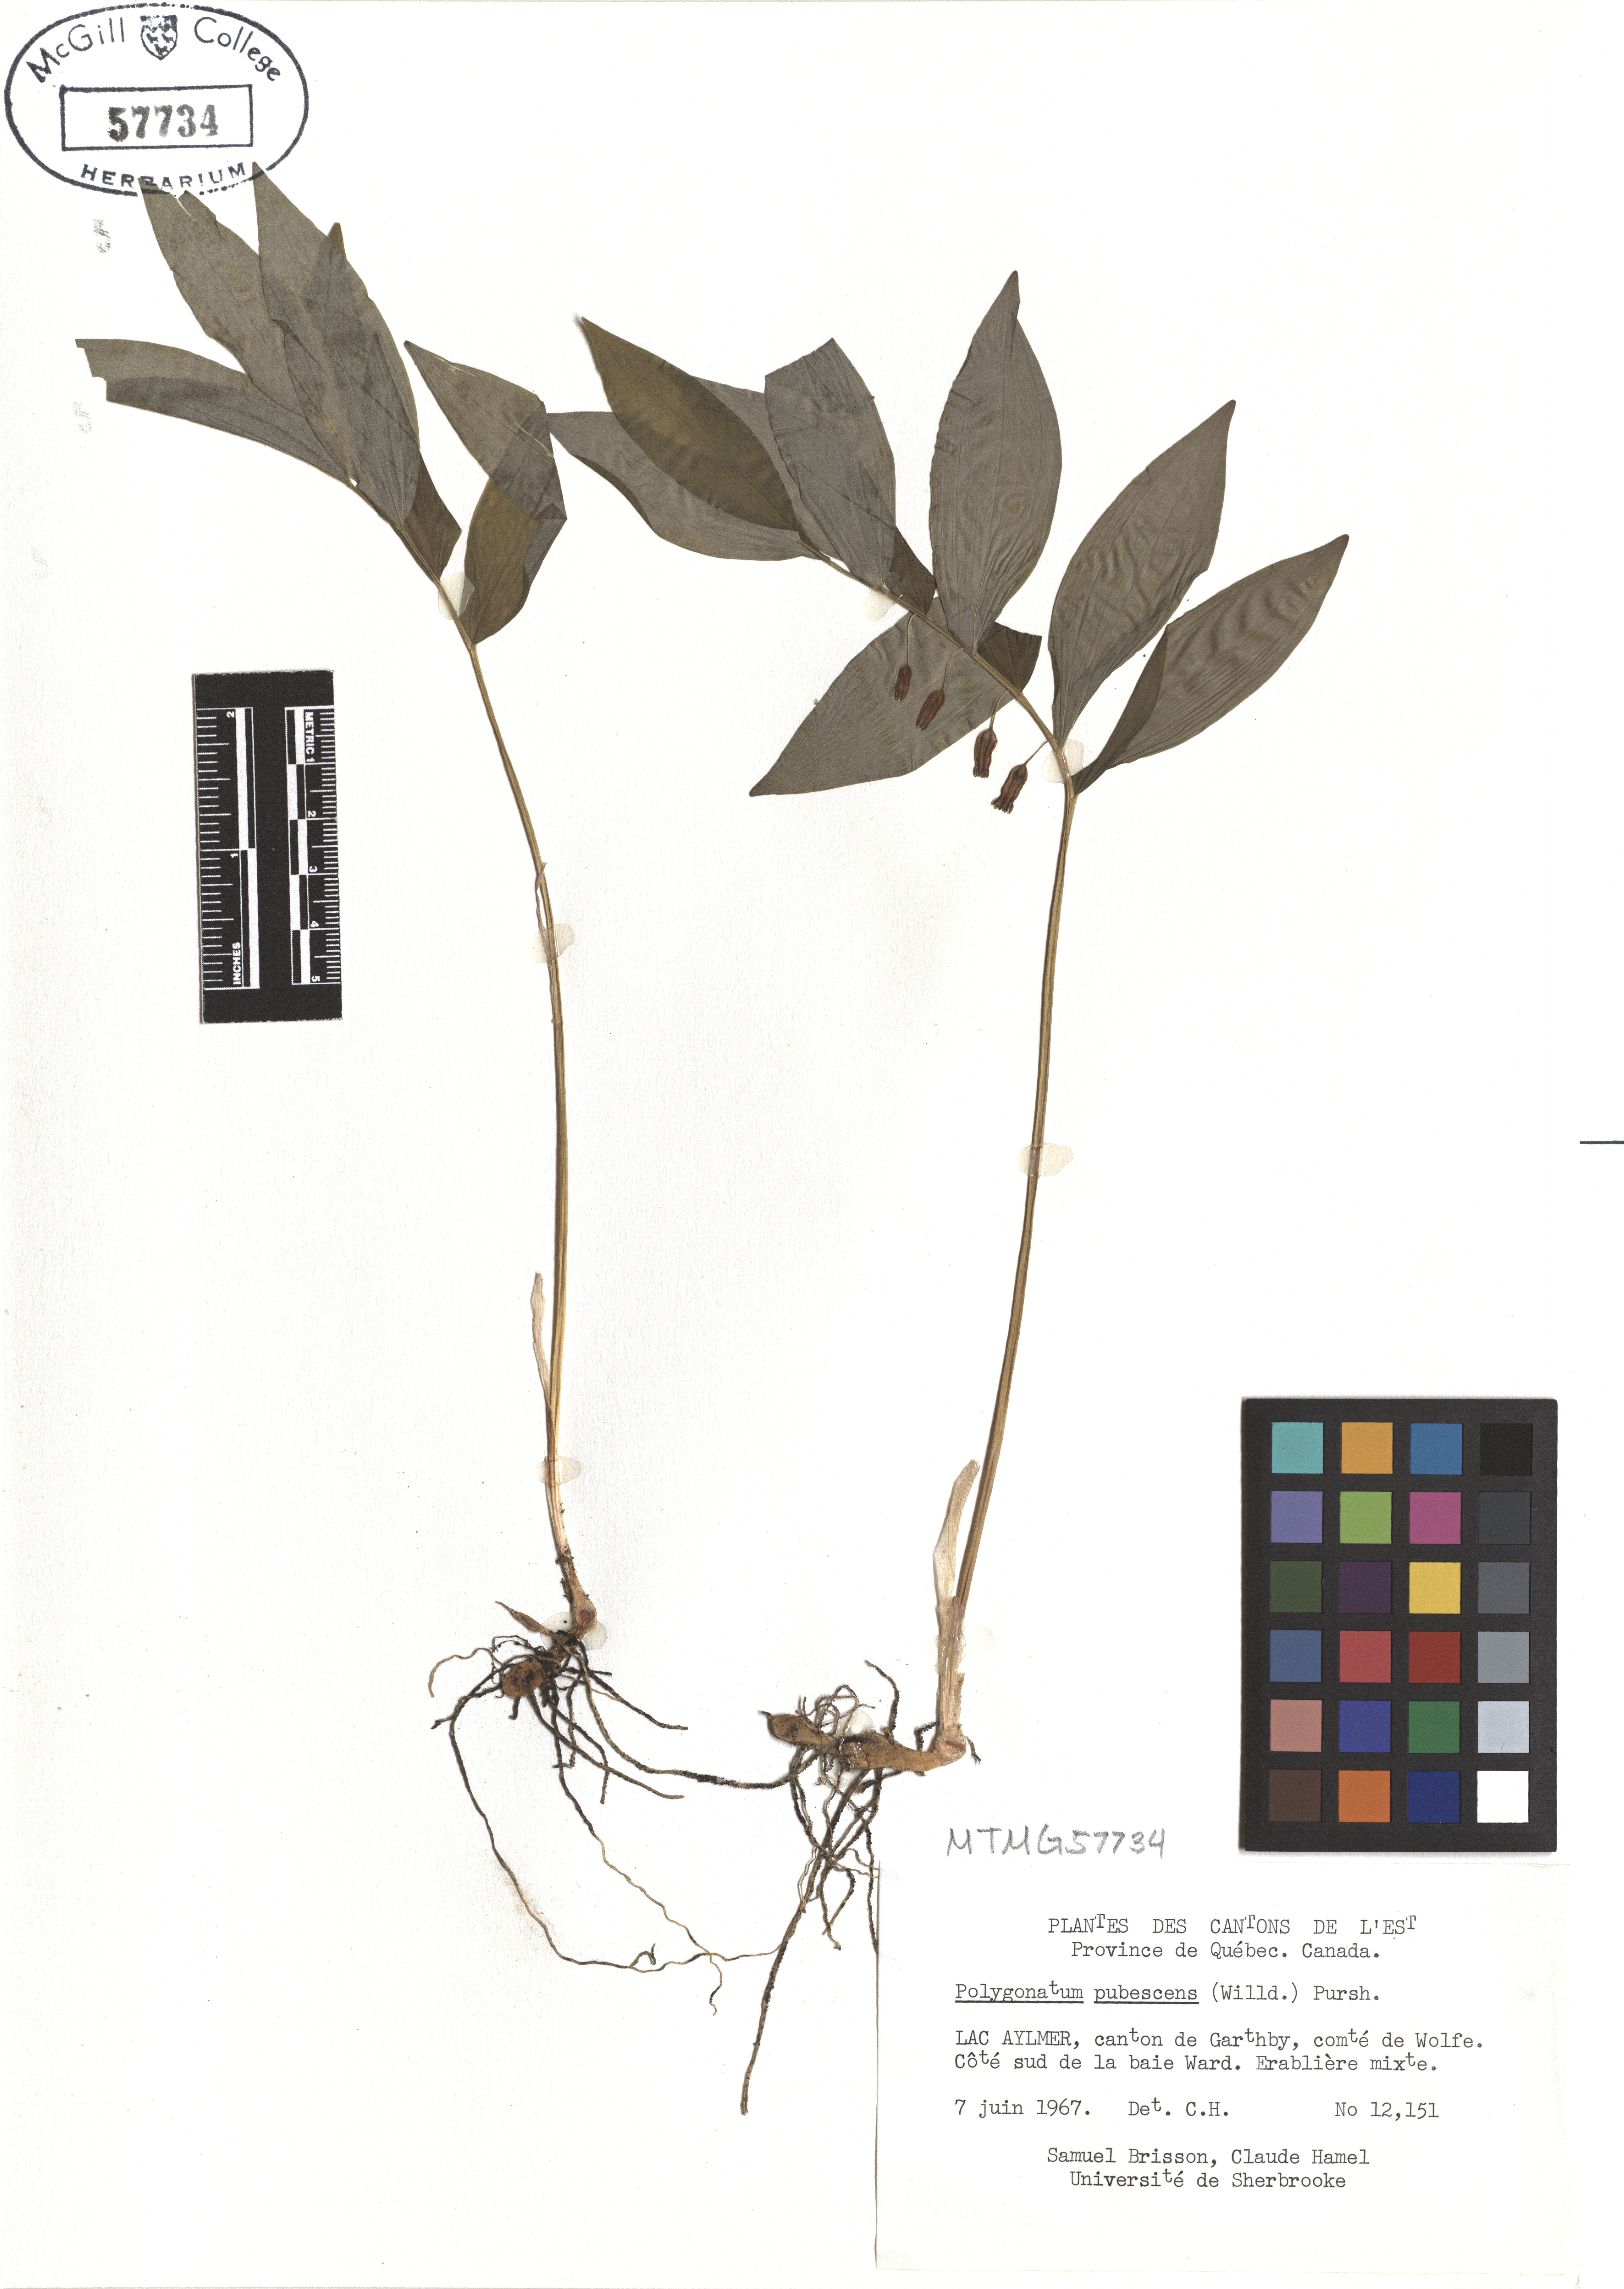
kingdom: Plantae
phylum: Tracheophyta
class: Liliopsida
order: Asparagales
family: Asparagaceae
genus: Polygonatum
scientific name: Polygonatum pubescens
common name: Downy solomon's seal
